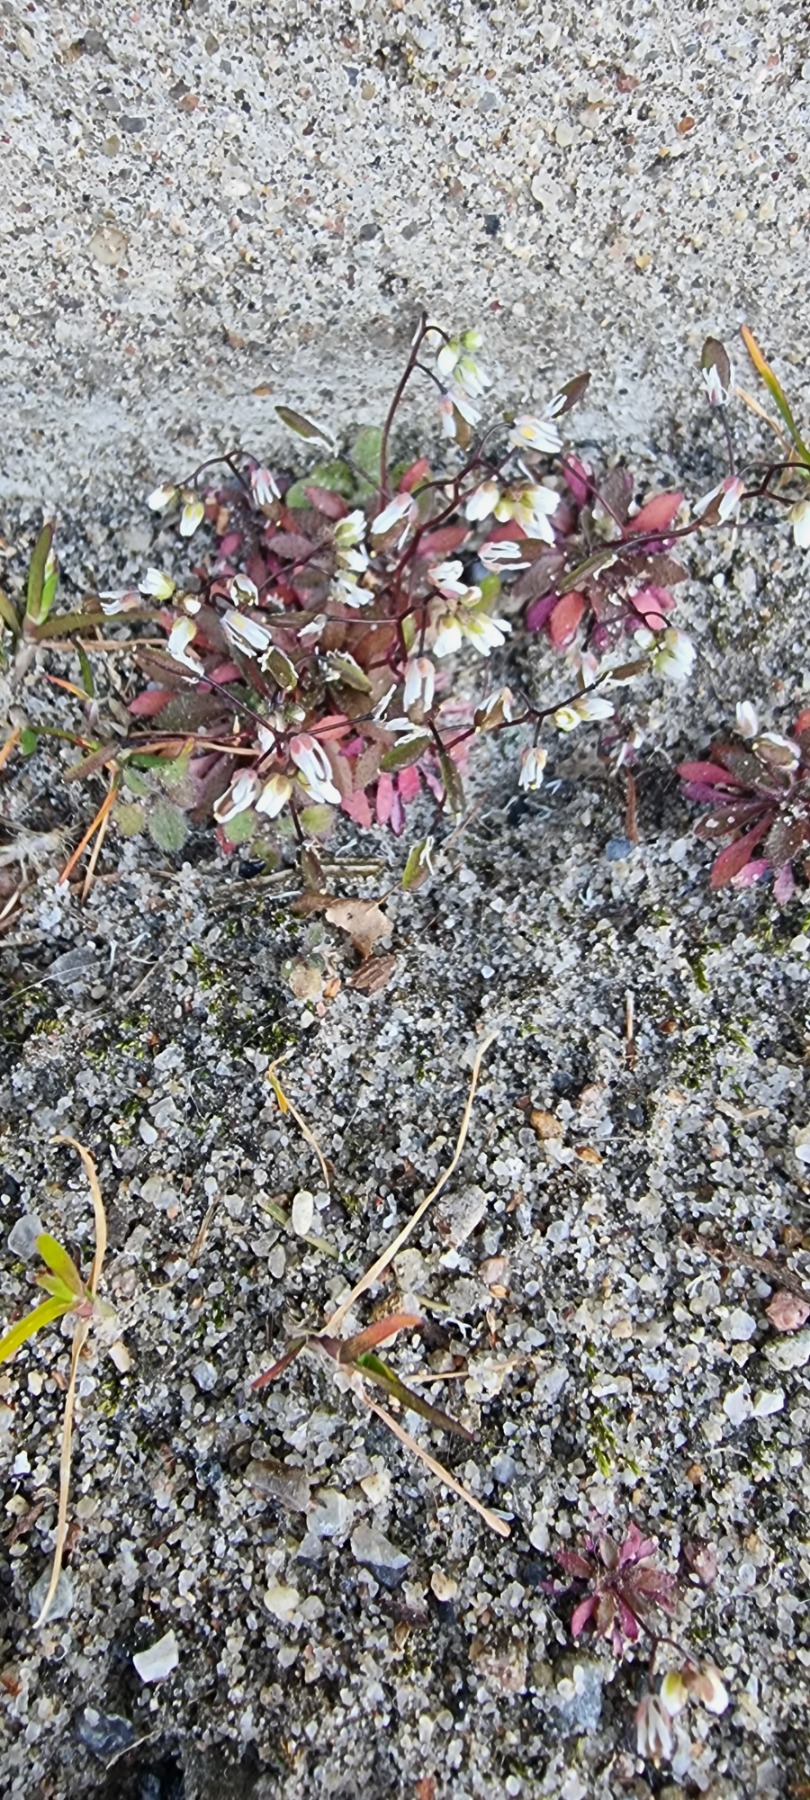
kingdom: Plantae
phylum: Tracheophyta
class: Magnoliopsida
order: Brassicales
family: Brassicaceae
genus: Draba
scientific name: Draba verna
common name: Vår-gæslingeblomst
